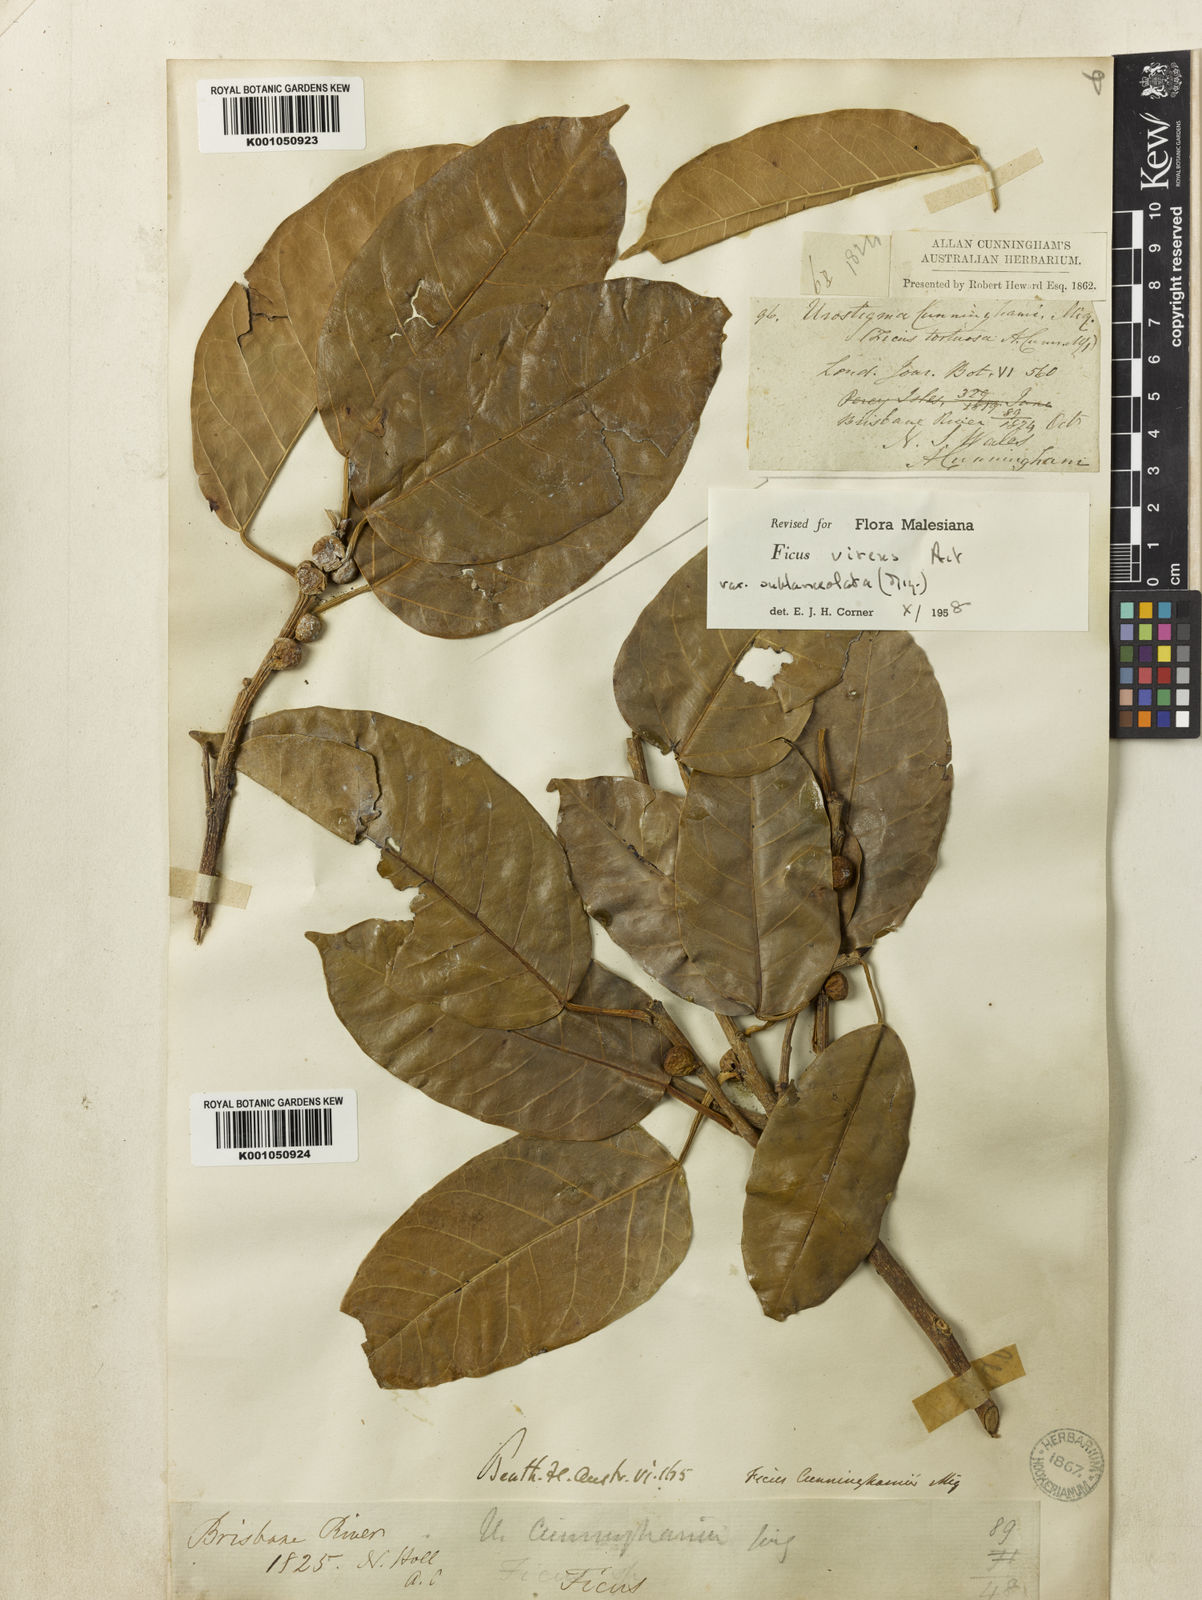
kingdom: Plantae
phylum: Tracheophyta
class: Magnoliopsida
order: Rosales
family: Moraceae
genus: Ficus
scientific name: Ficus virens
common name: Spotted fig
